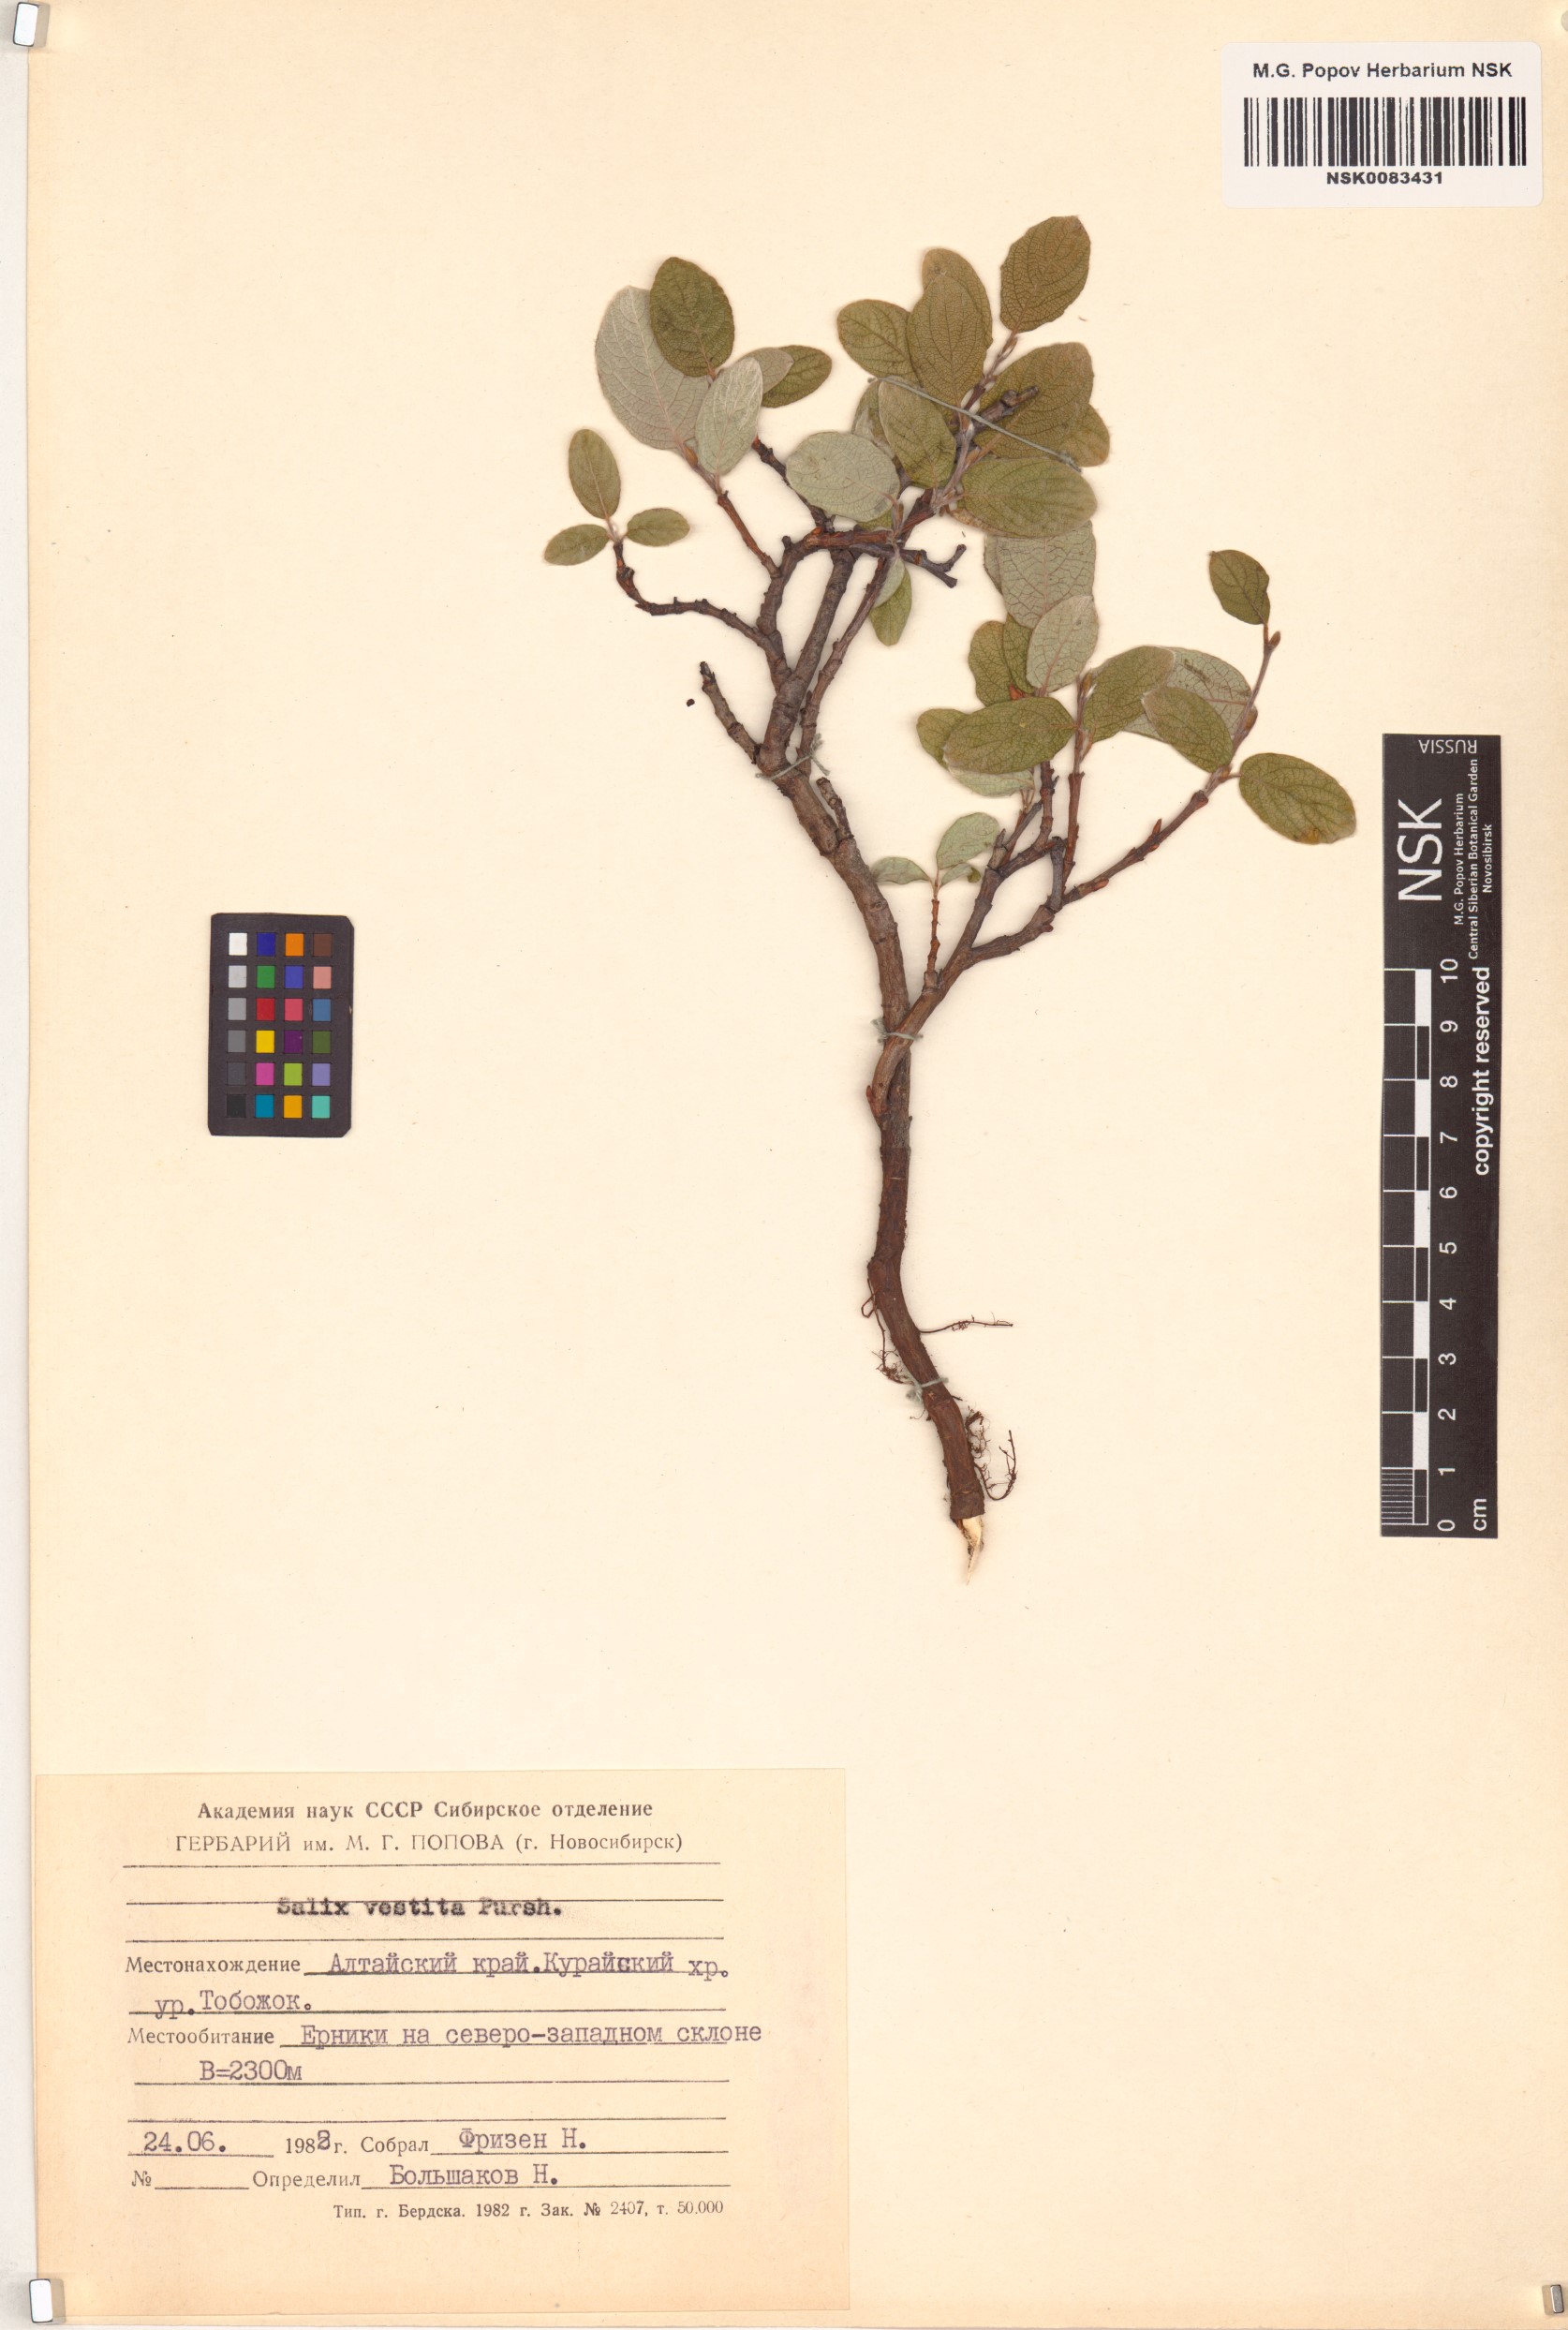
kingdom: Plantae
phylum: Tracheophyta
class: Magnoliopsida
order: Malpighiales
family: Salicaceae
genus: Salix
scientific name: Salix vestita
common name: Hairy willow
